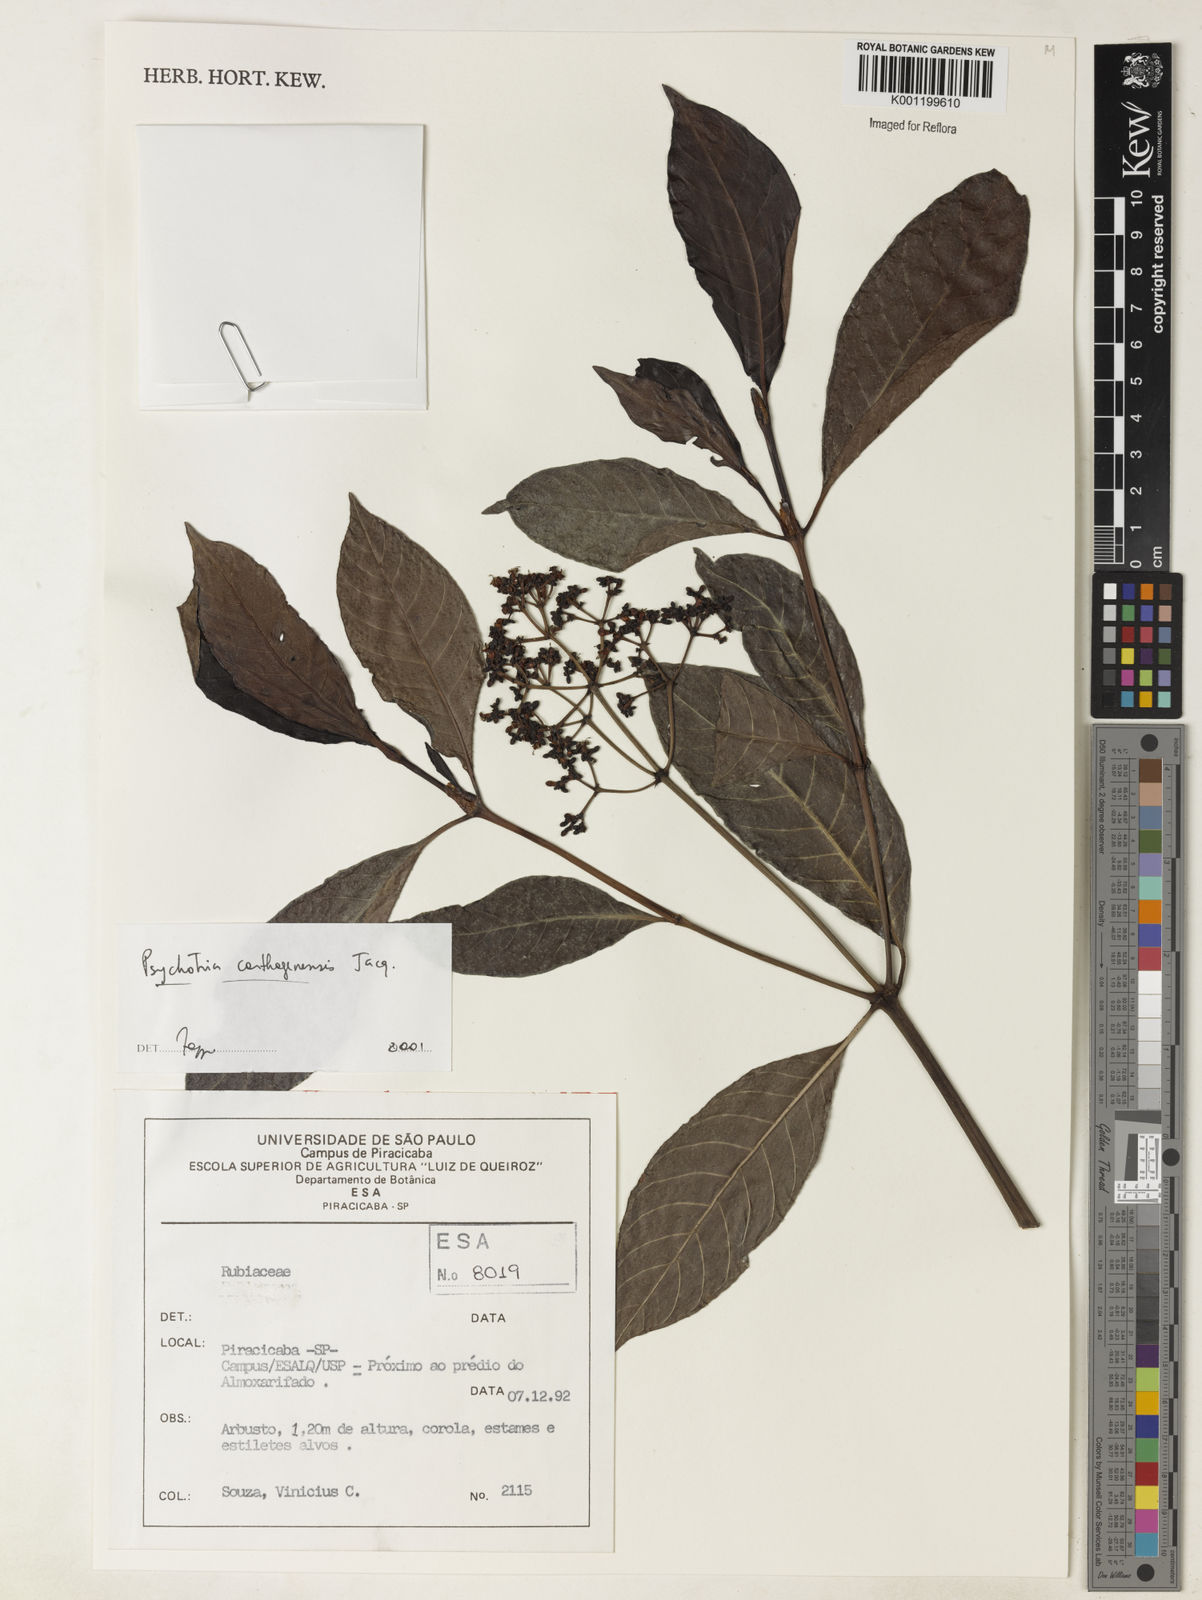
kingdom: Plantae
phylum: Tracheophyta
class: Magnoliopsida
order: Gentianales
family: Rubiaceae
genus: Psychotria
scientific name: Psychotria carthagenensis
